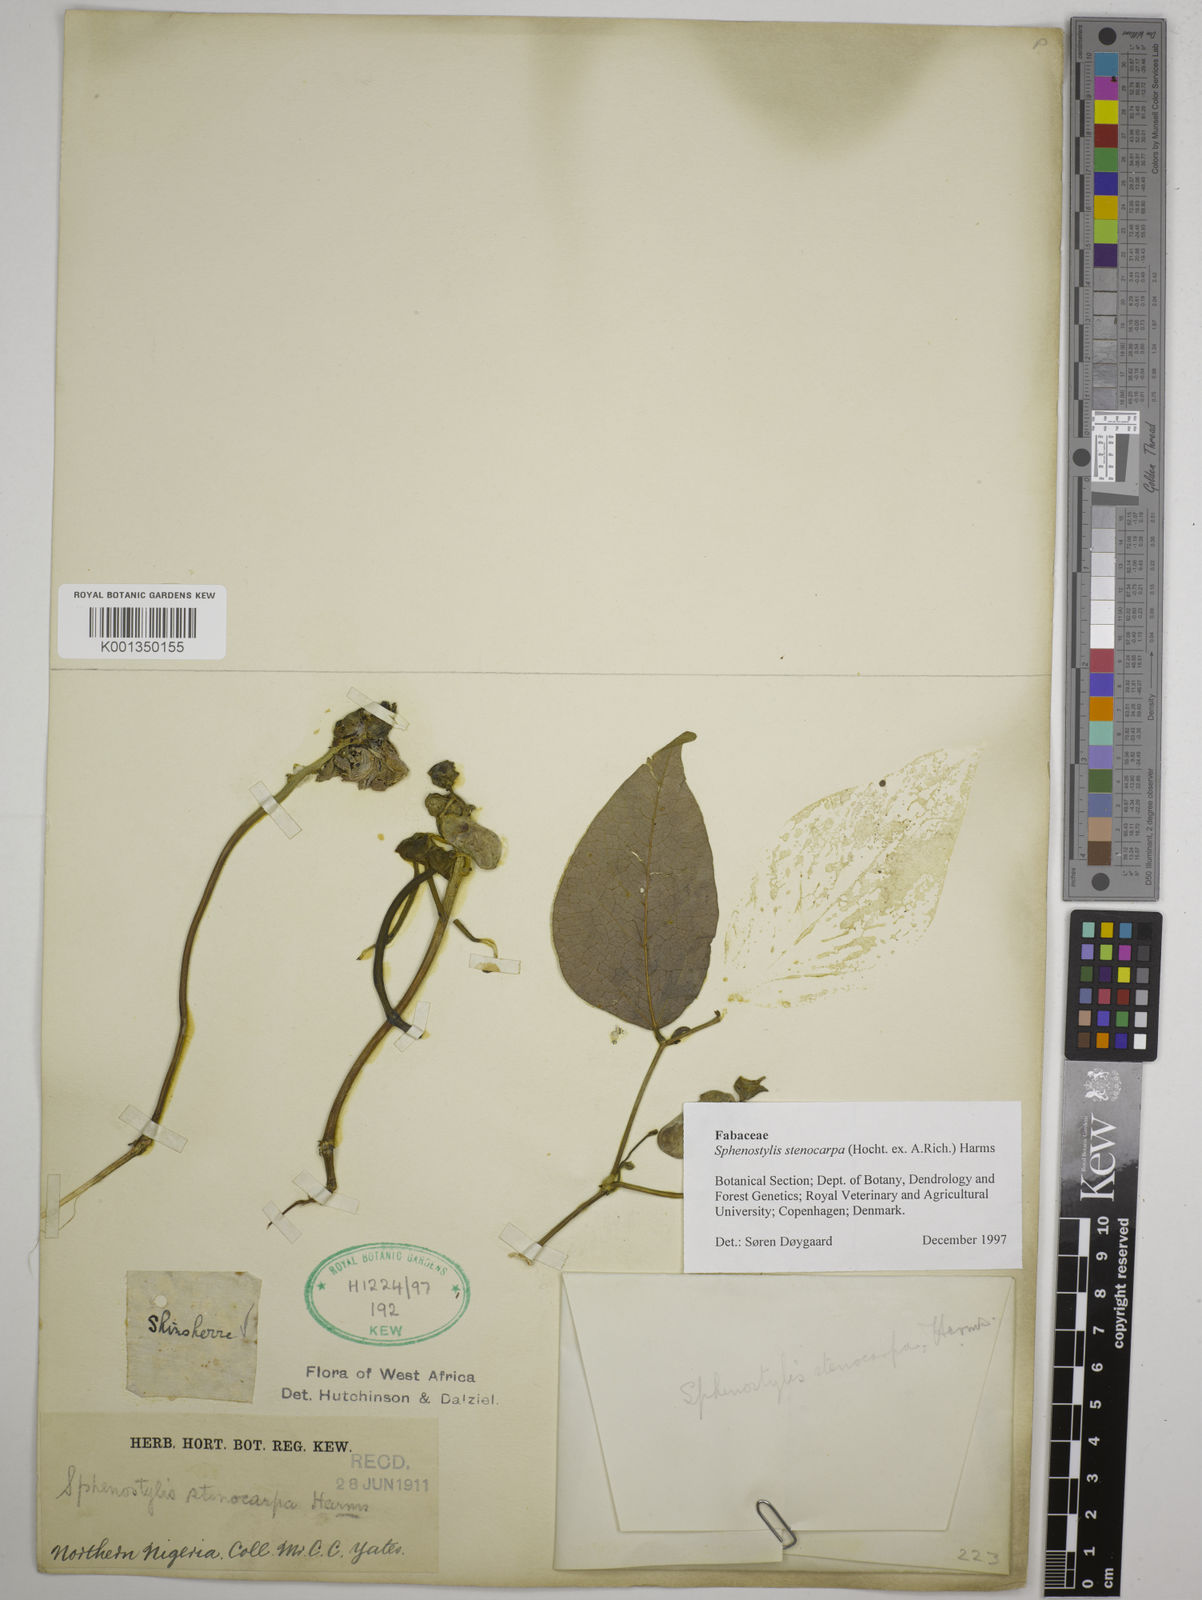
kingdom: Plantae
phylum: Tracheophyta
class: Magnoliopsida
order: Fabales
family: Fabaceae
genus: Sphenostylis
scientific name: Sphenostylis stenocarpa
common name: Yam-pea
